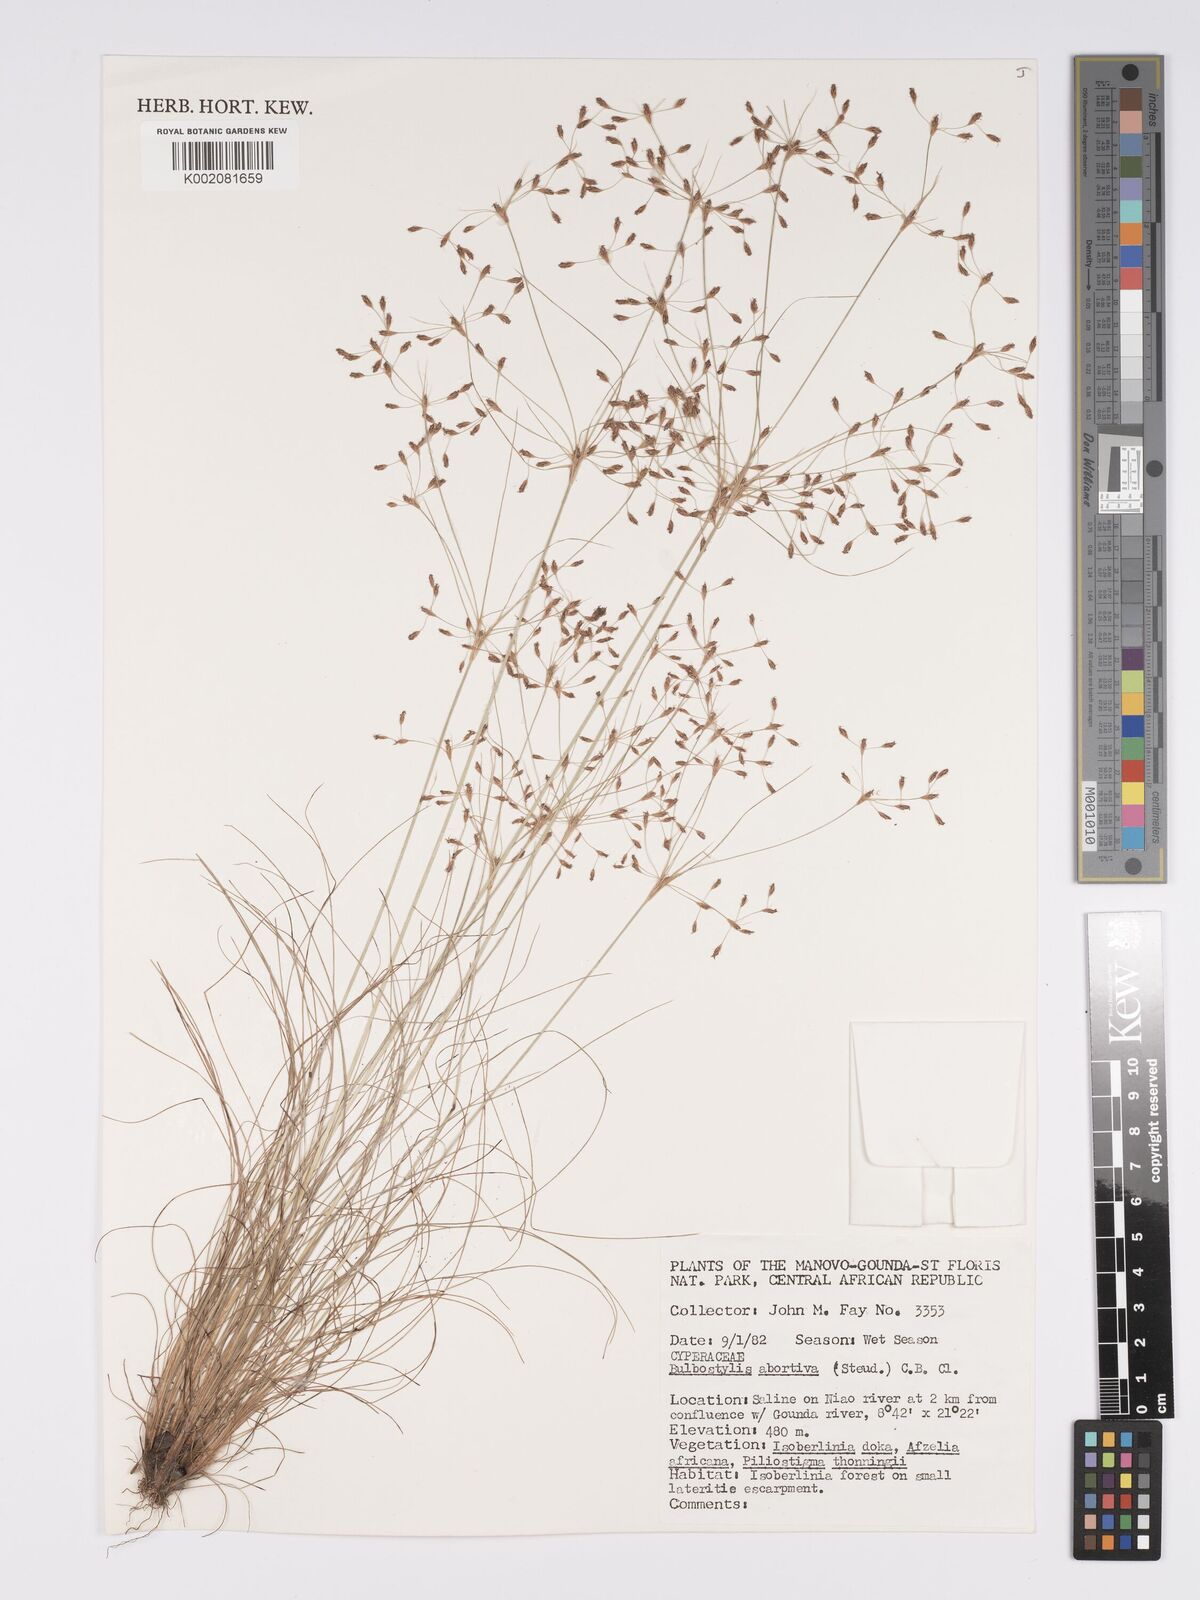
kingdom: Plantae
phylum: Tracheophyta
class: Liliopsida
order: Poales
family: Cyperaceae
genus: Bulbostylis
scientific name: Bulbostylis abortiva
